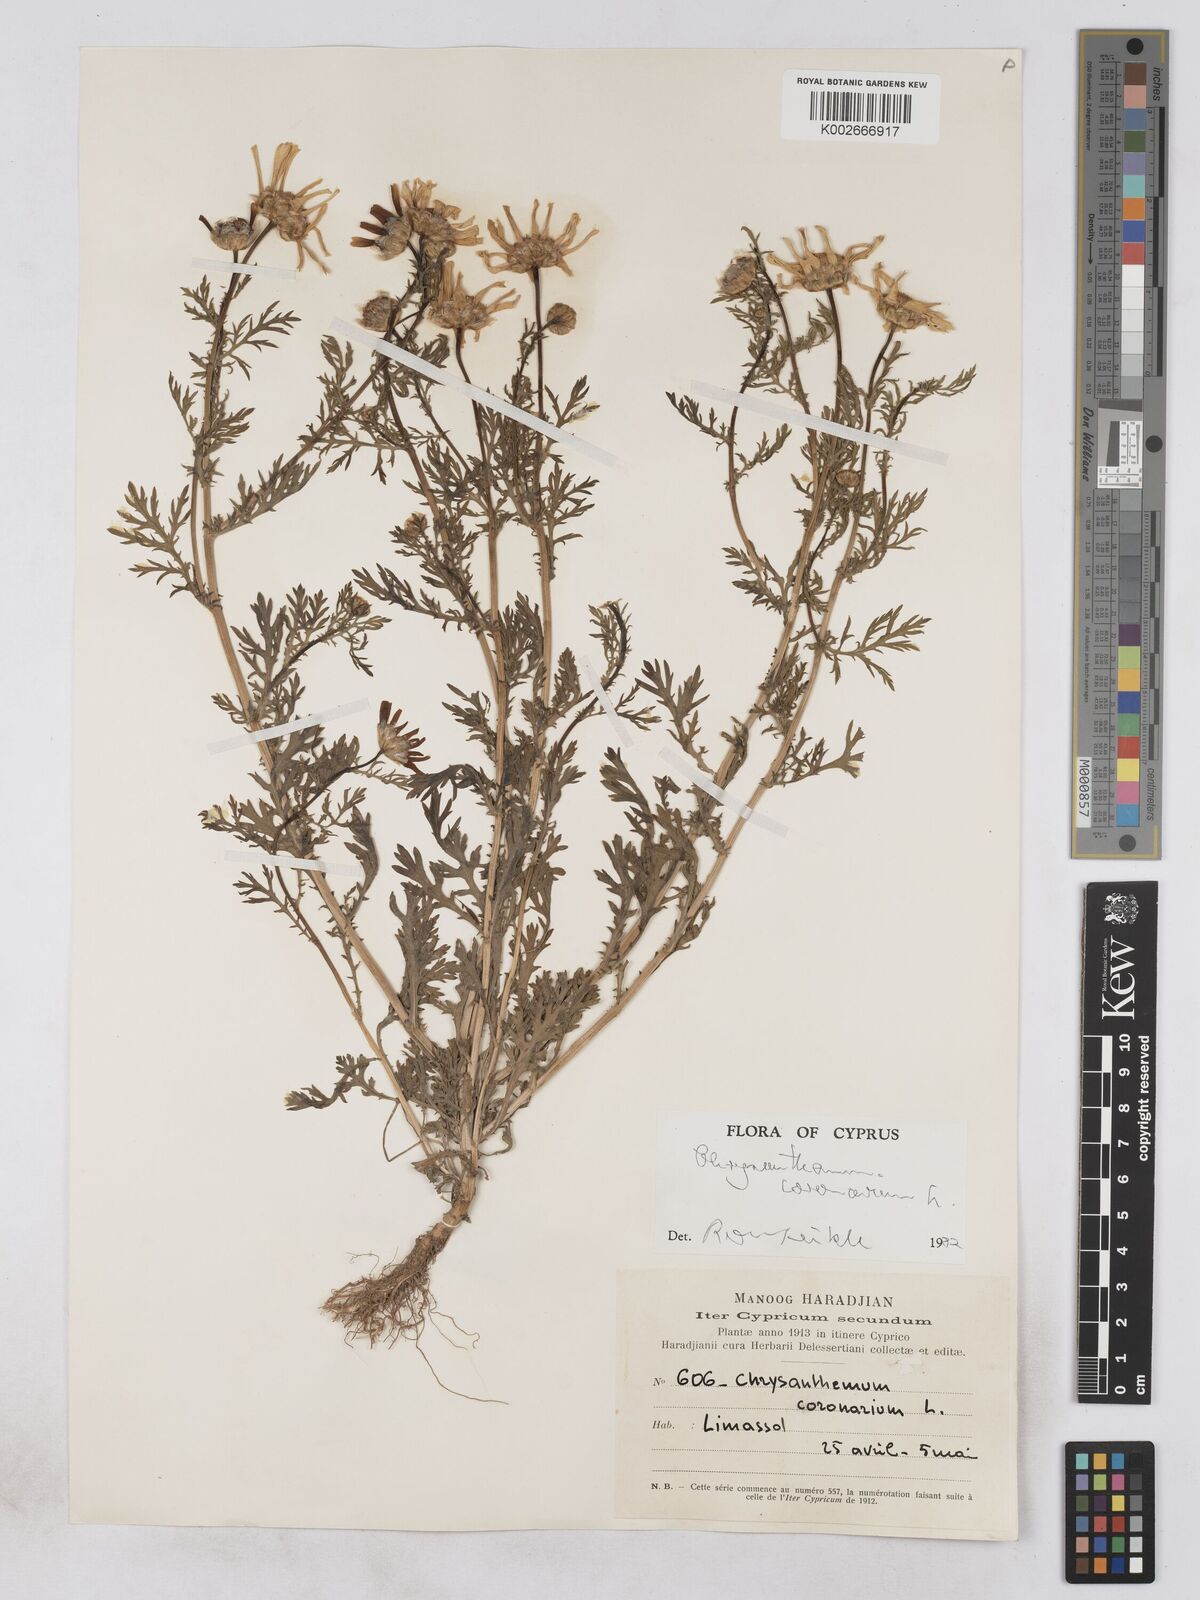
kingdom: Plantae
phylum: Tracheophyta
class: Magnoliopsida
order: Asterales
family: Asteraceae
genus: Glebionis
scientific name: Glebionis coronaria
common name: Crowndaisy
